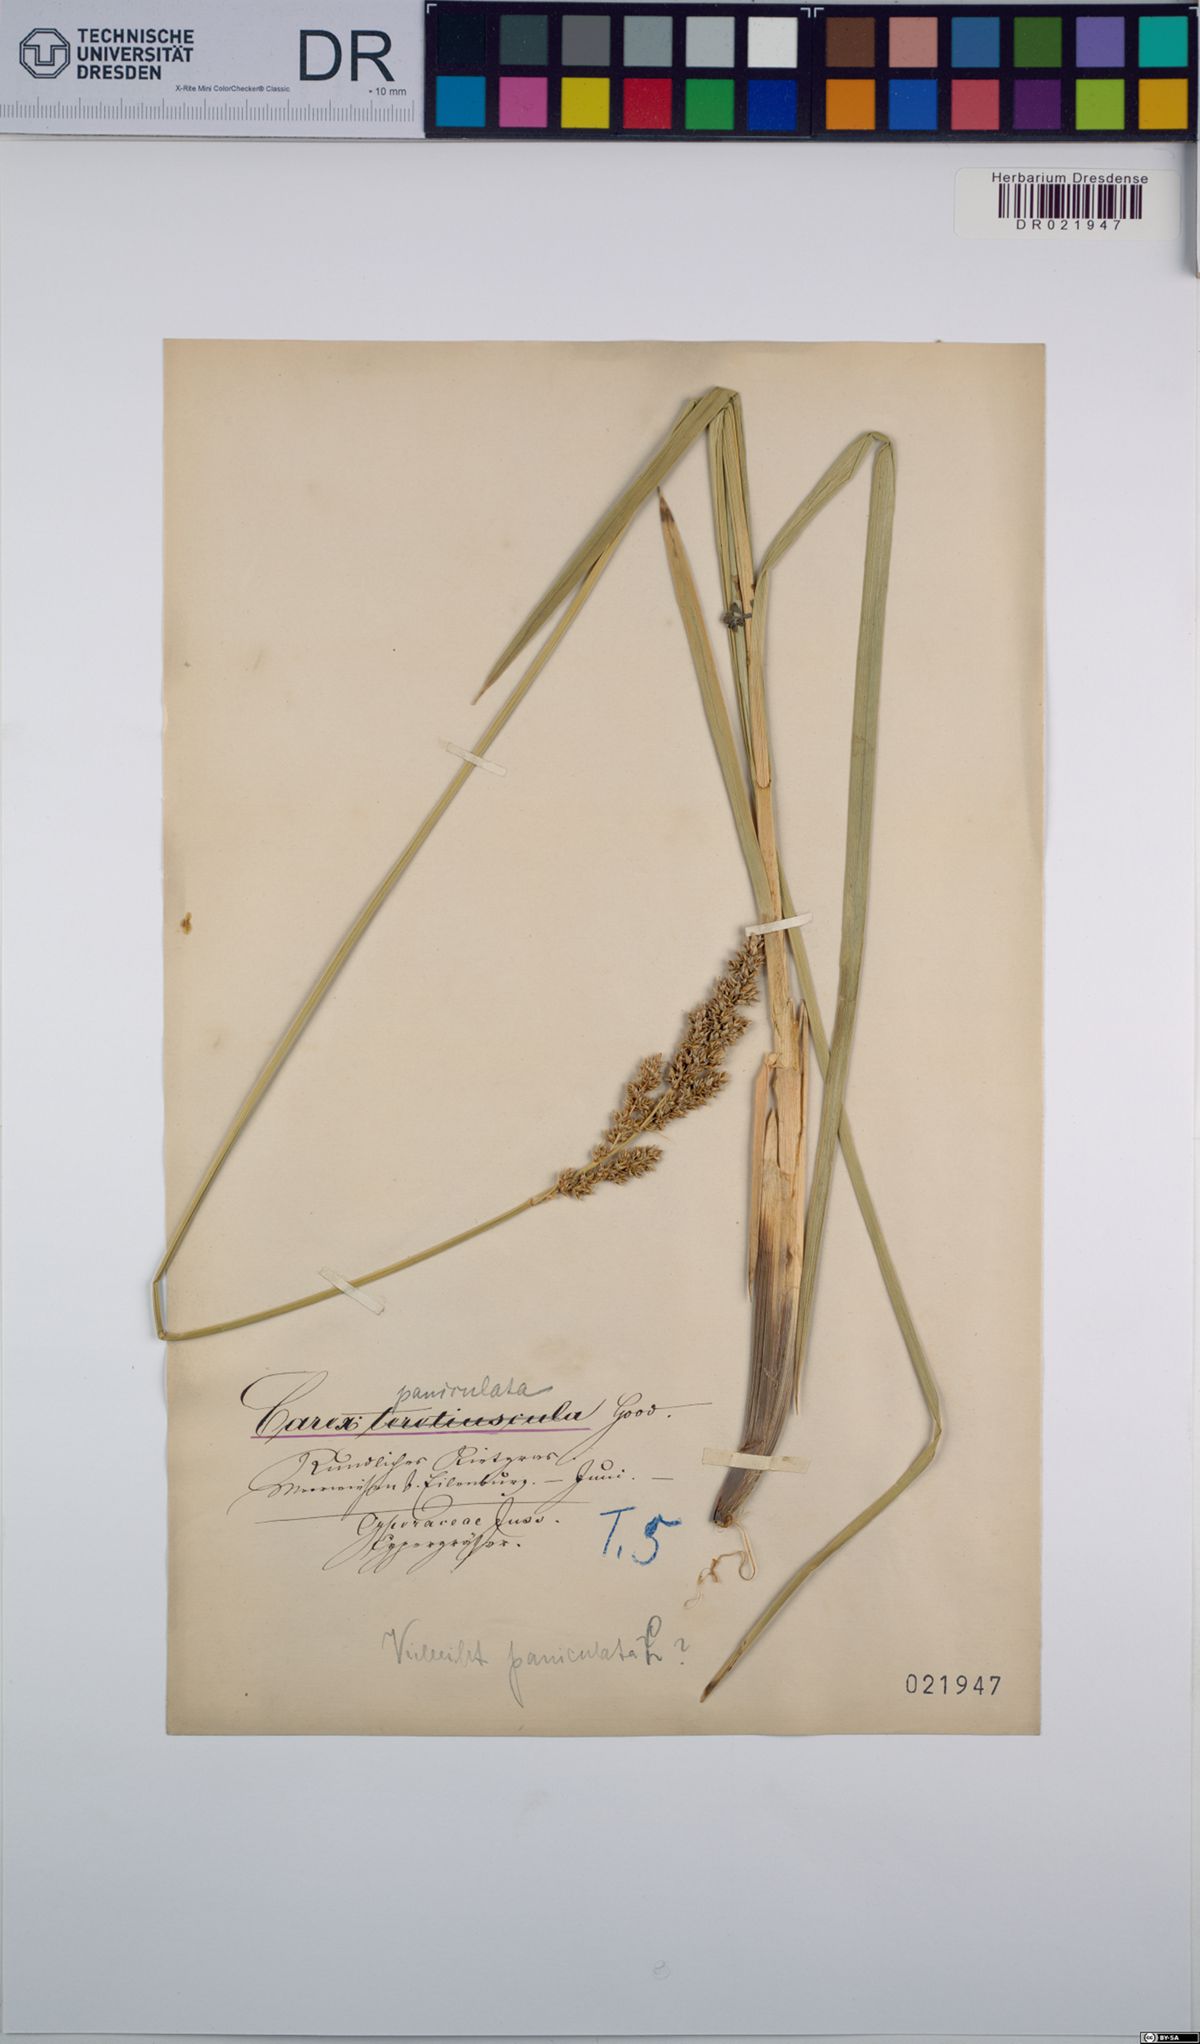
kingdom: Plantae
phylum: Tracheophyta
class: Liliopsida
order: Poales
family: Cyperaceae
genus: Carex
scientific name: Carex paniculata
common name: Greater tussock-sedge
